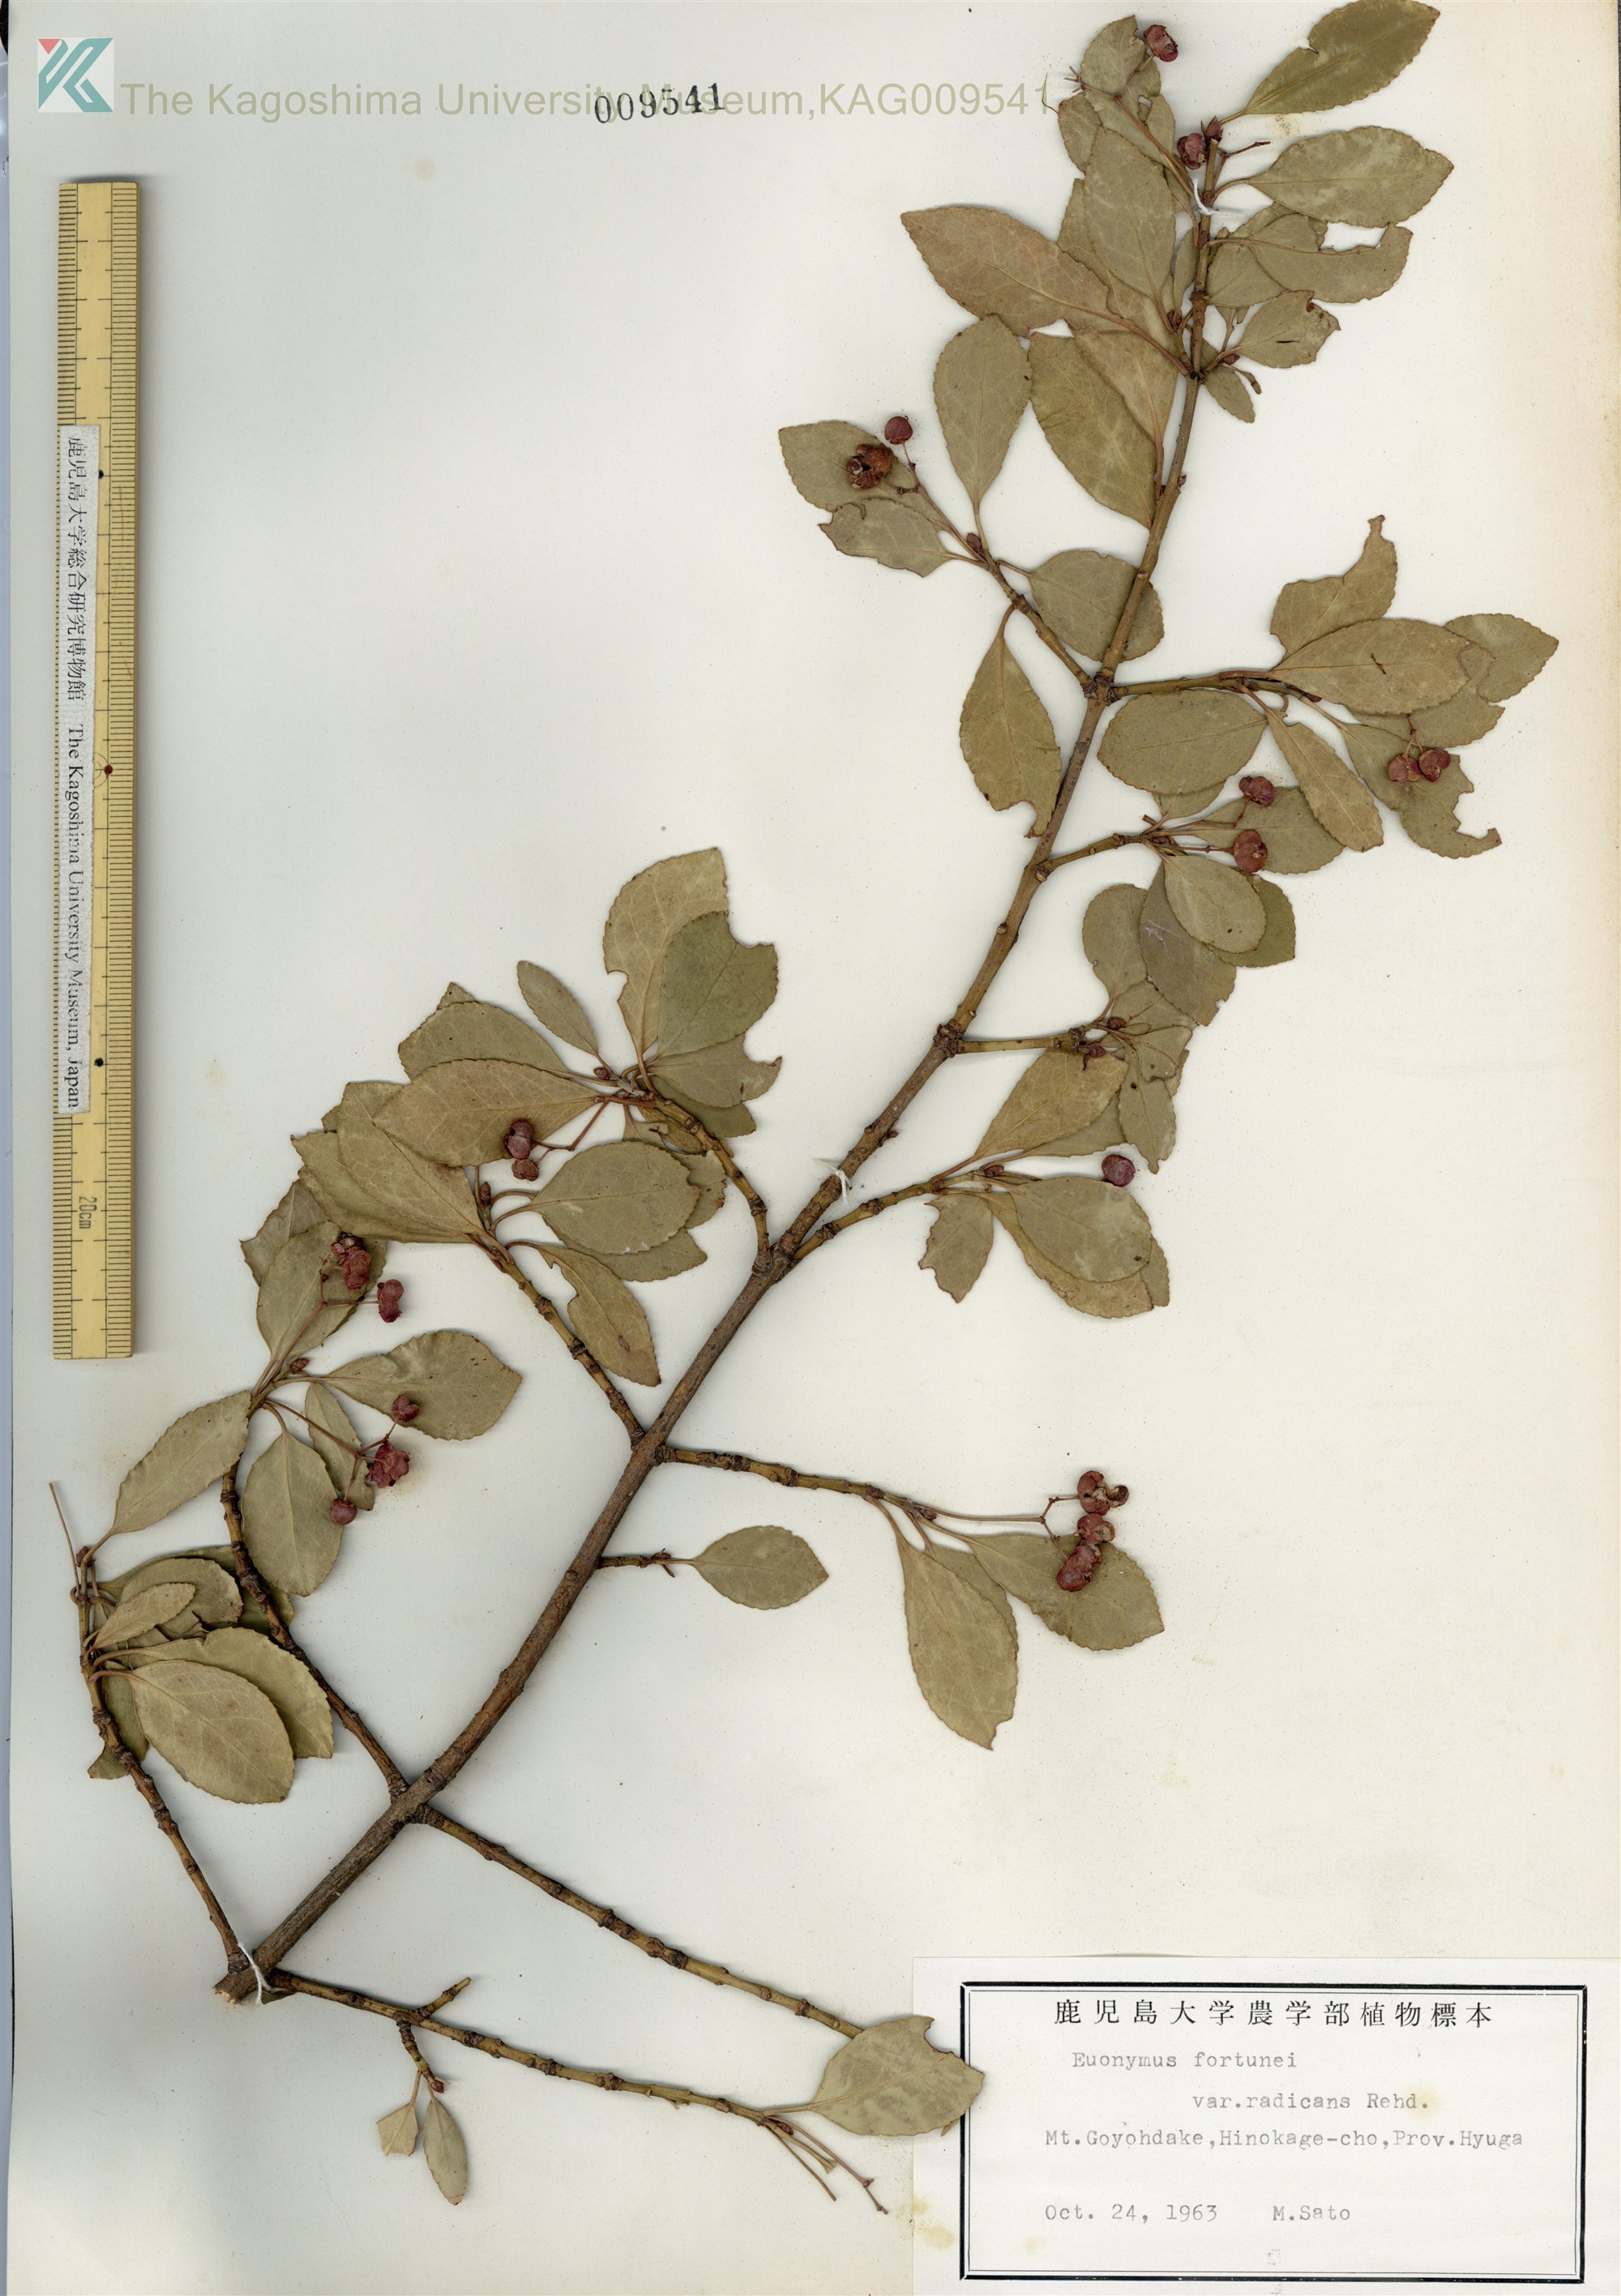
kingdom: Plantae
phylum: Tracheophyta
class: Magnoliopsida
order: Celastrales
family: Celastraceae
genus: Euonymus
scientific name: Euonymus fortunei
